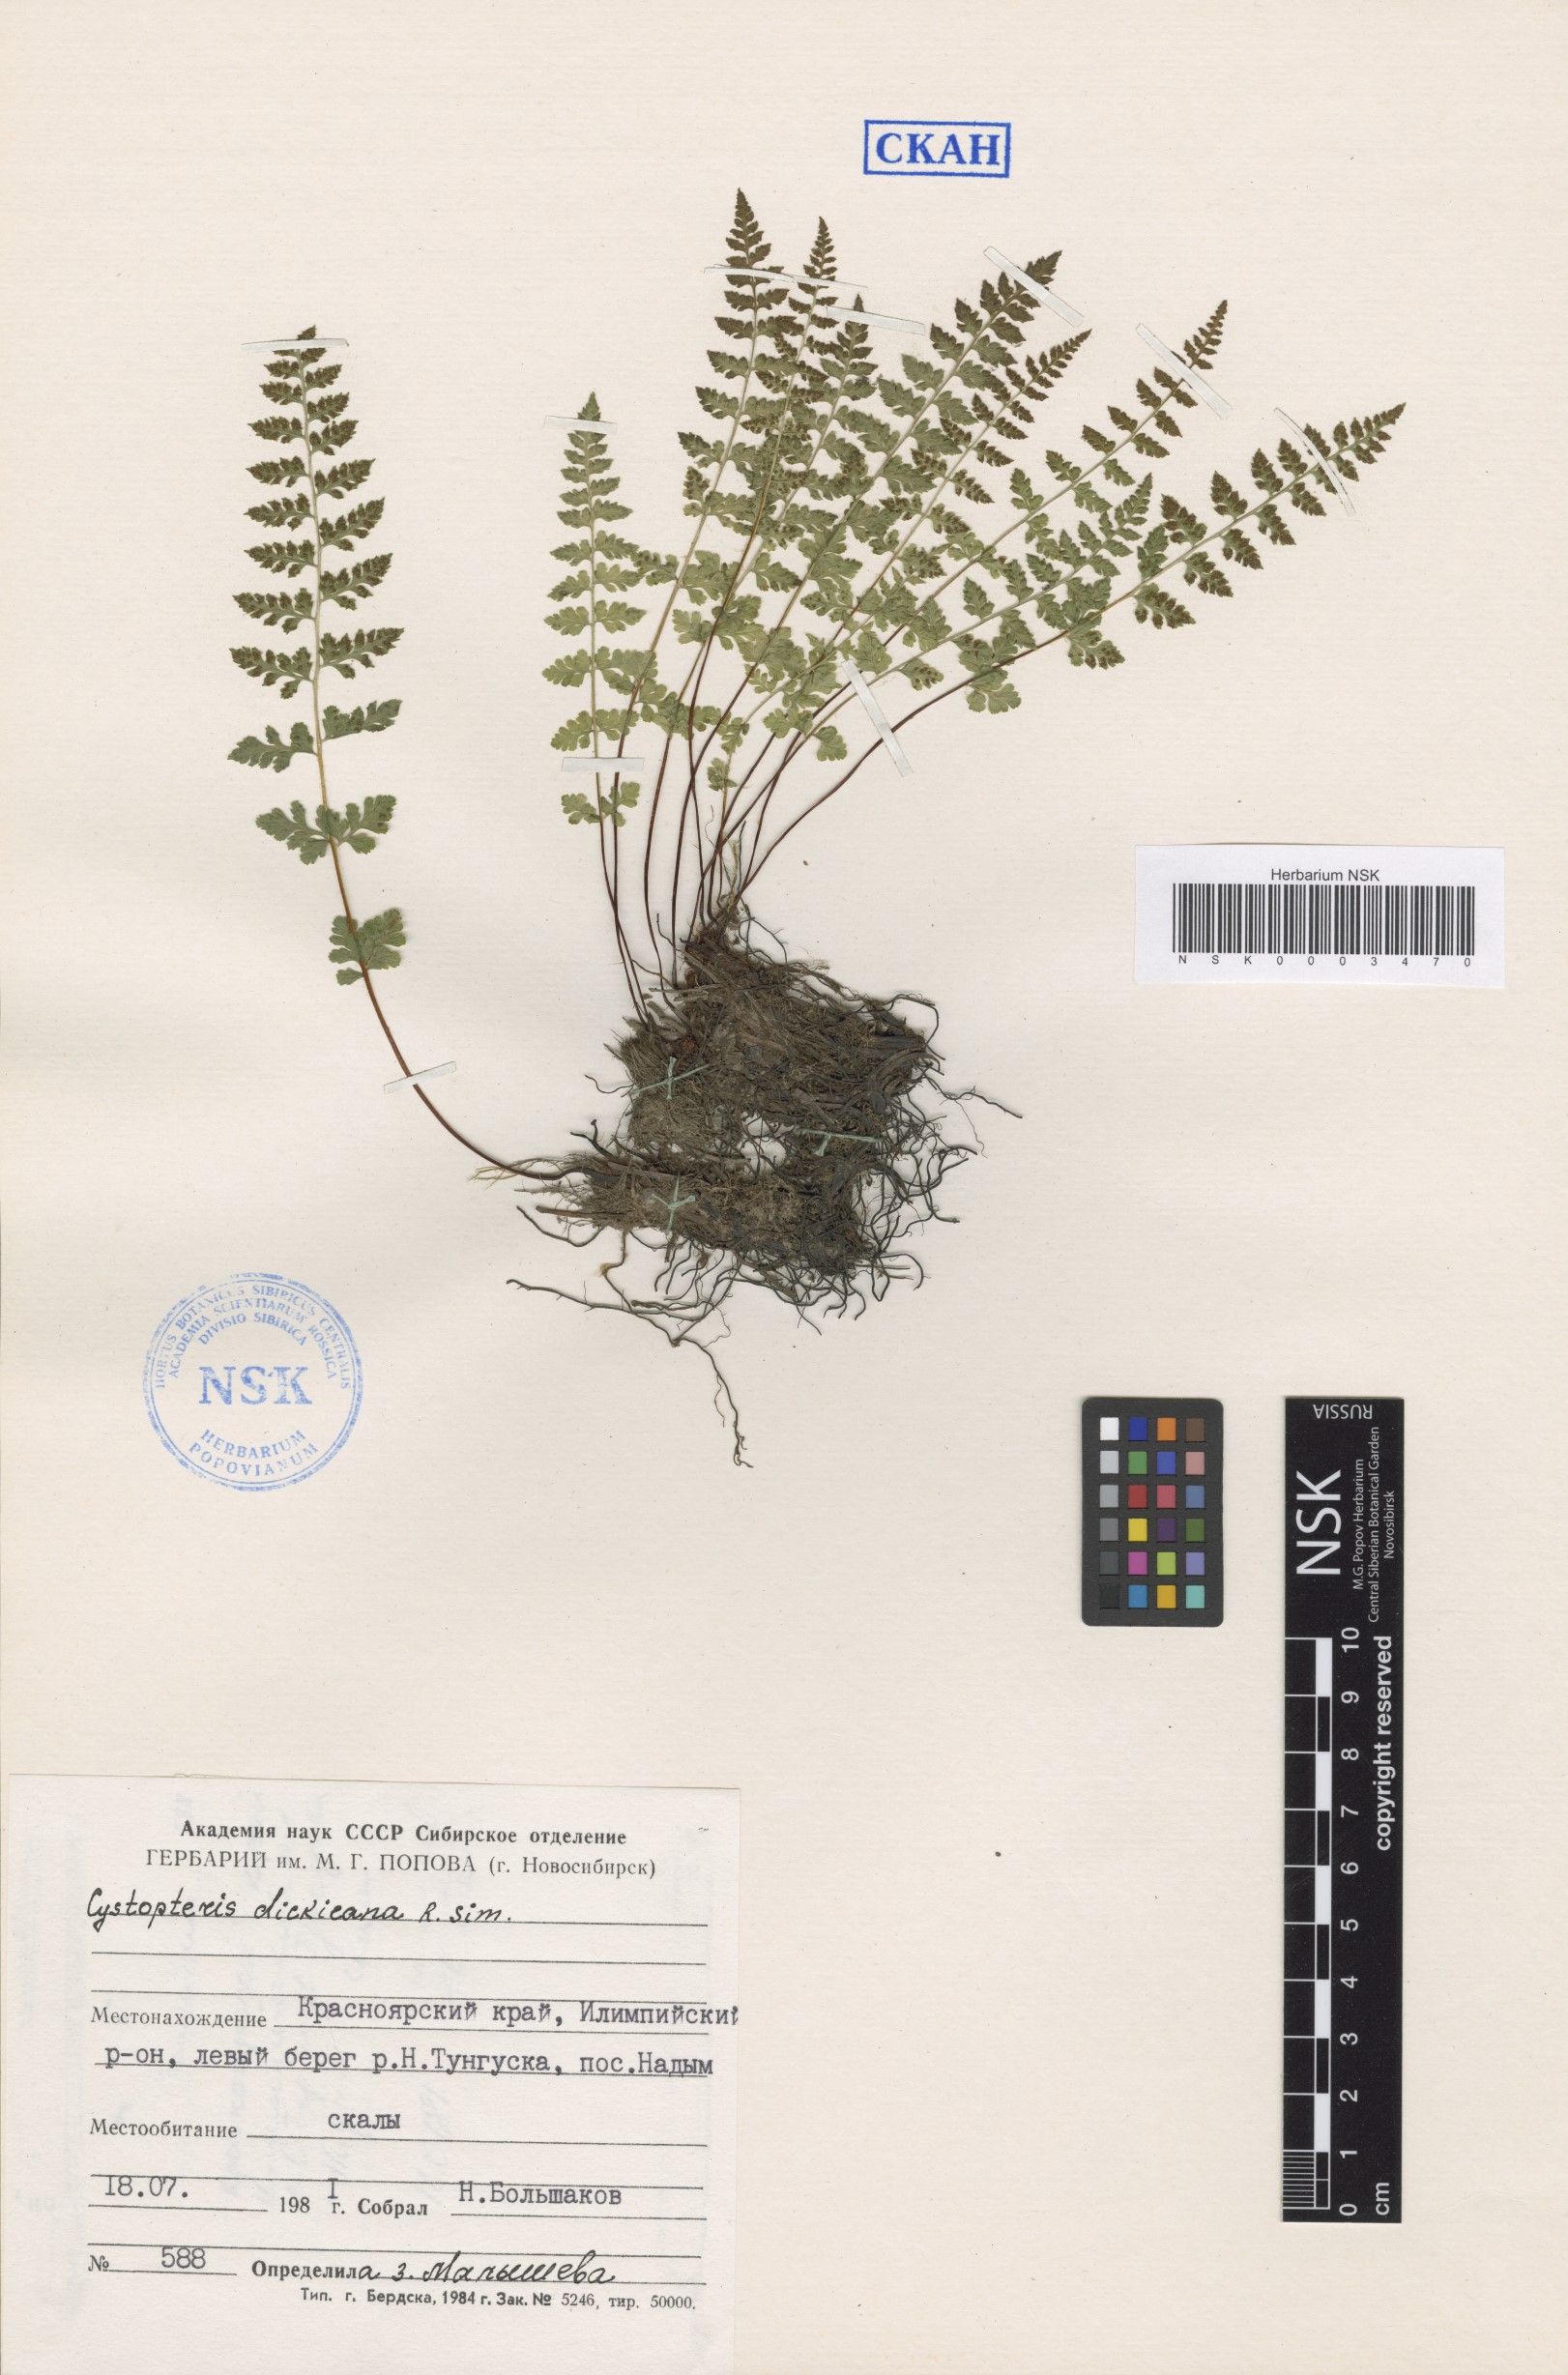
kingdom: Plantae
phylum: Tracheophyta
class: Polypodiopsida
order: Polypodiales
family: Cystopteridaceae
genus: Cystopteris
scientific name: Cystopteris dickieana
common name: Dickie's bladder-fern
